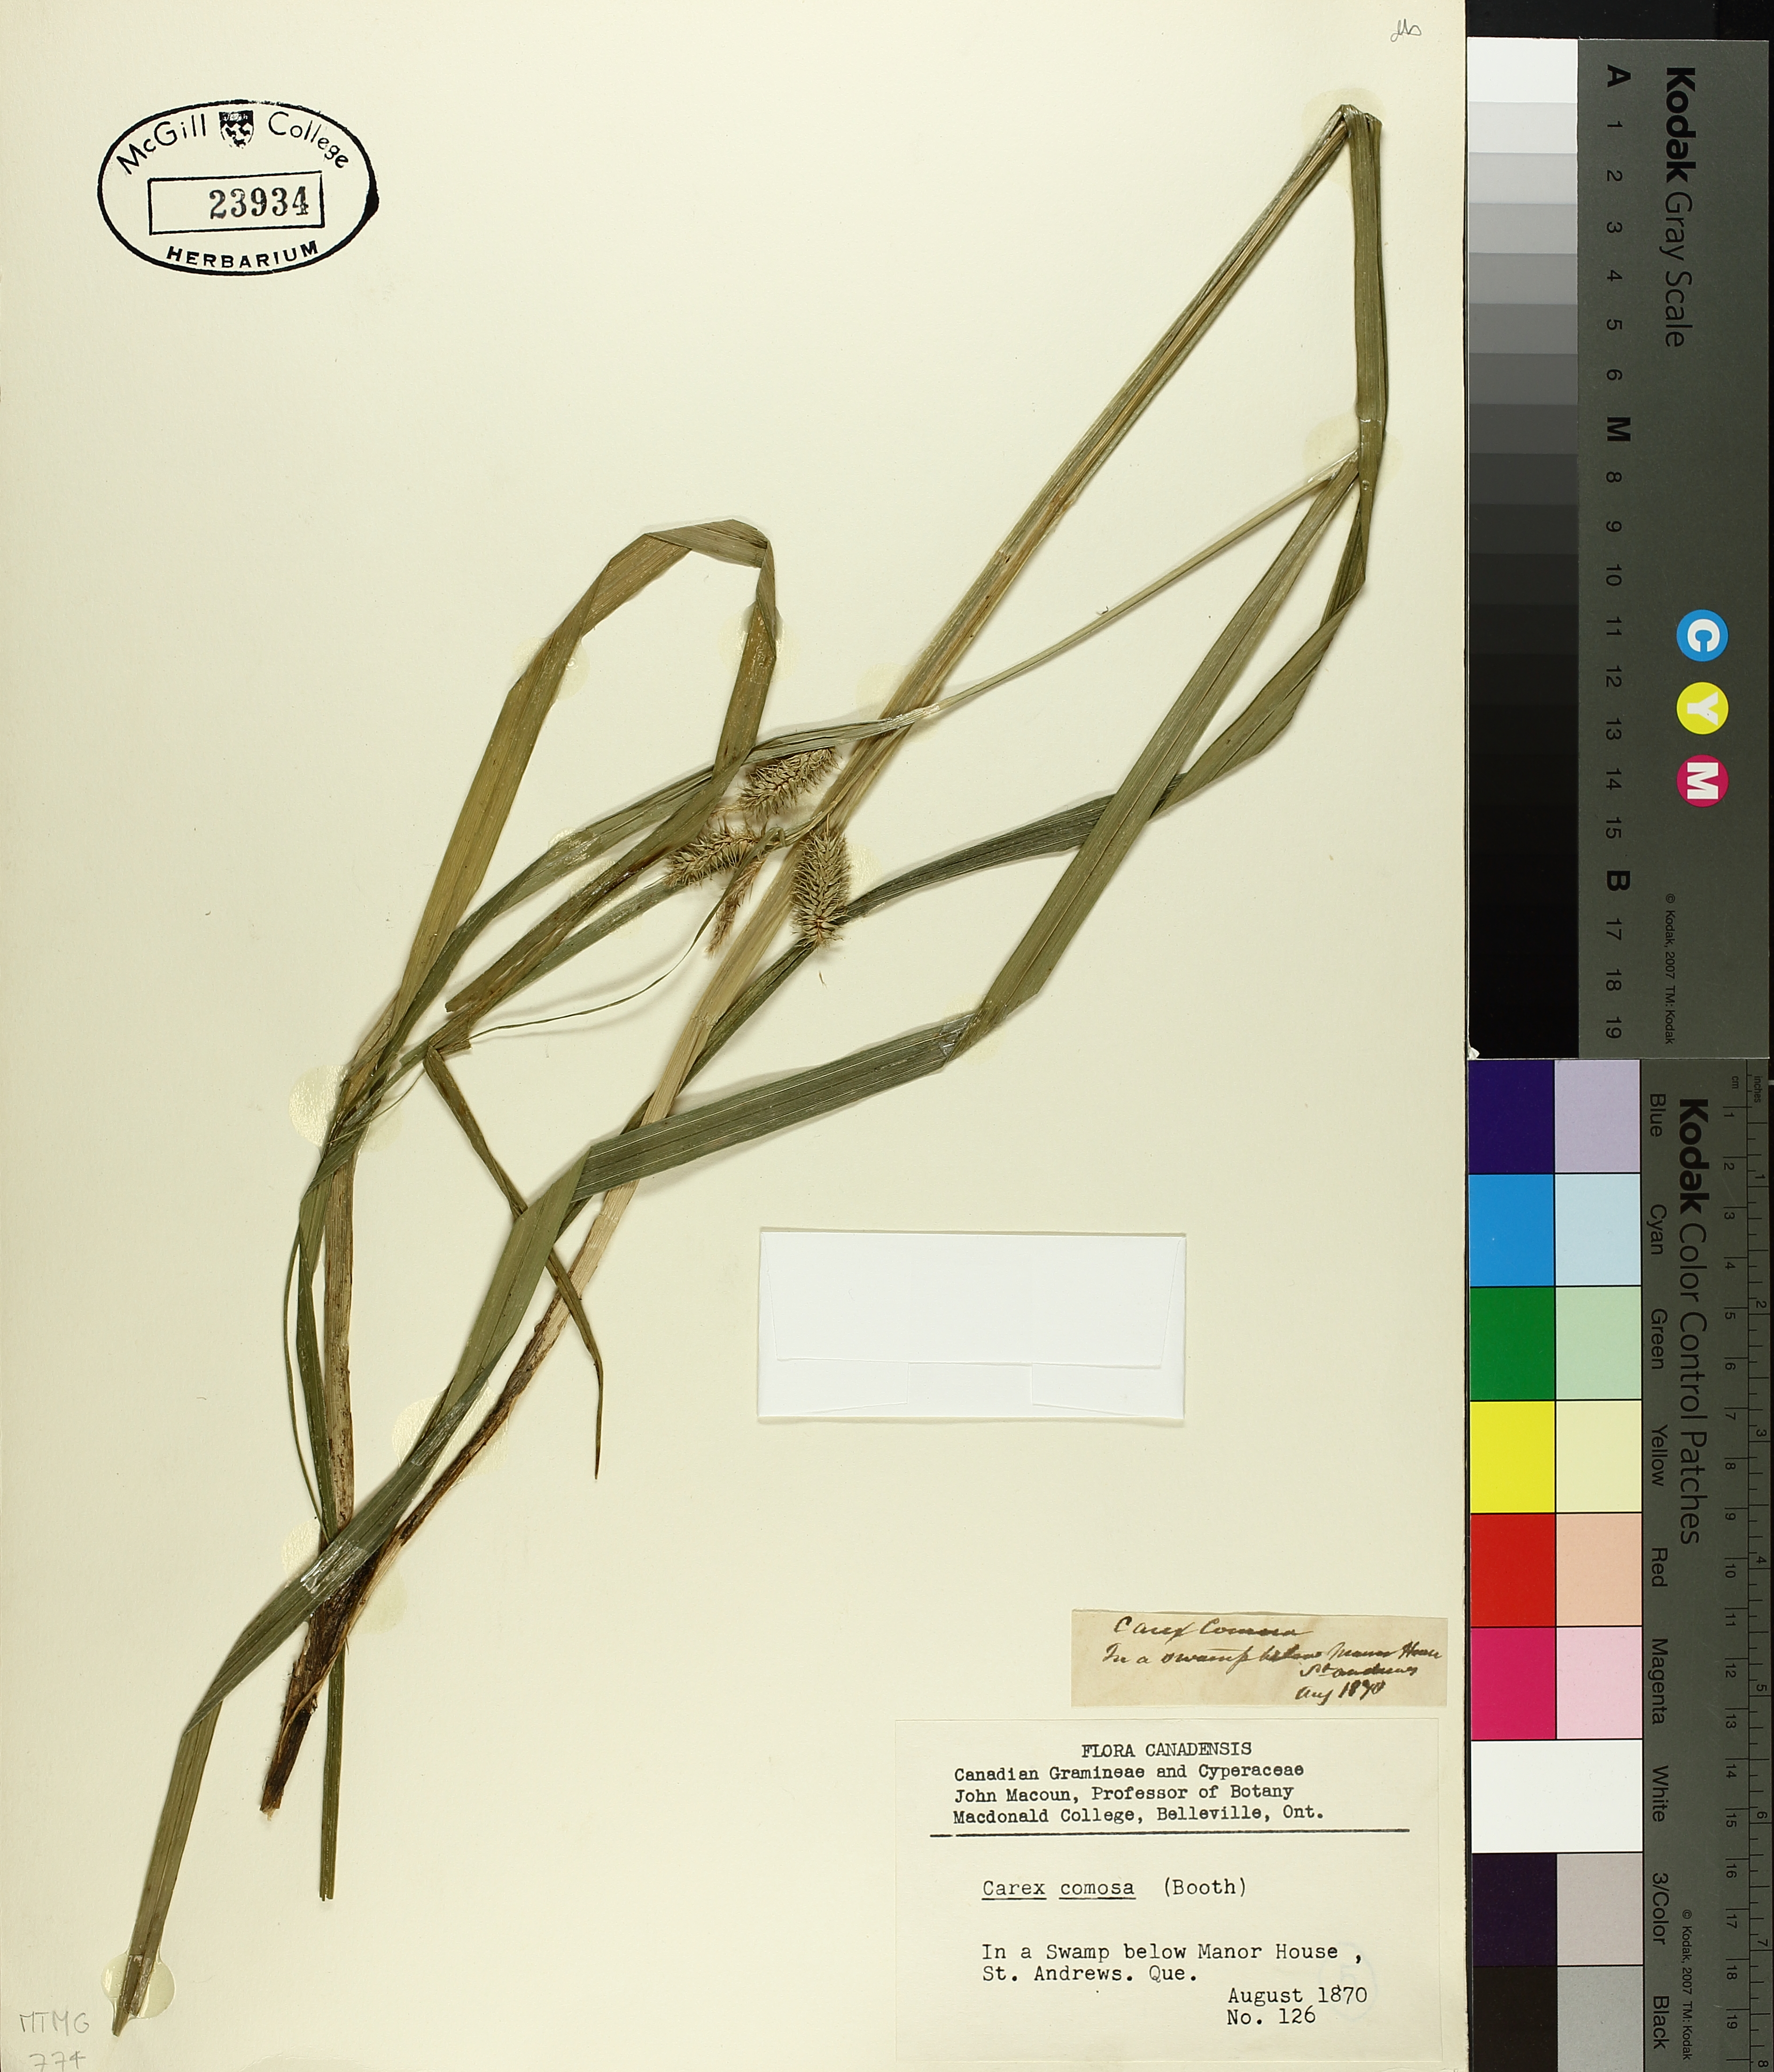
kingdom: Plantae
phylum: Tracheophyta
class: Liliopsida
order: Poales
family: Cyperaceae
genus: Carex
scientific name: Carex comosa
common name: Bristly sedge
